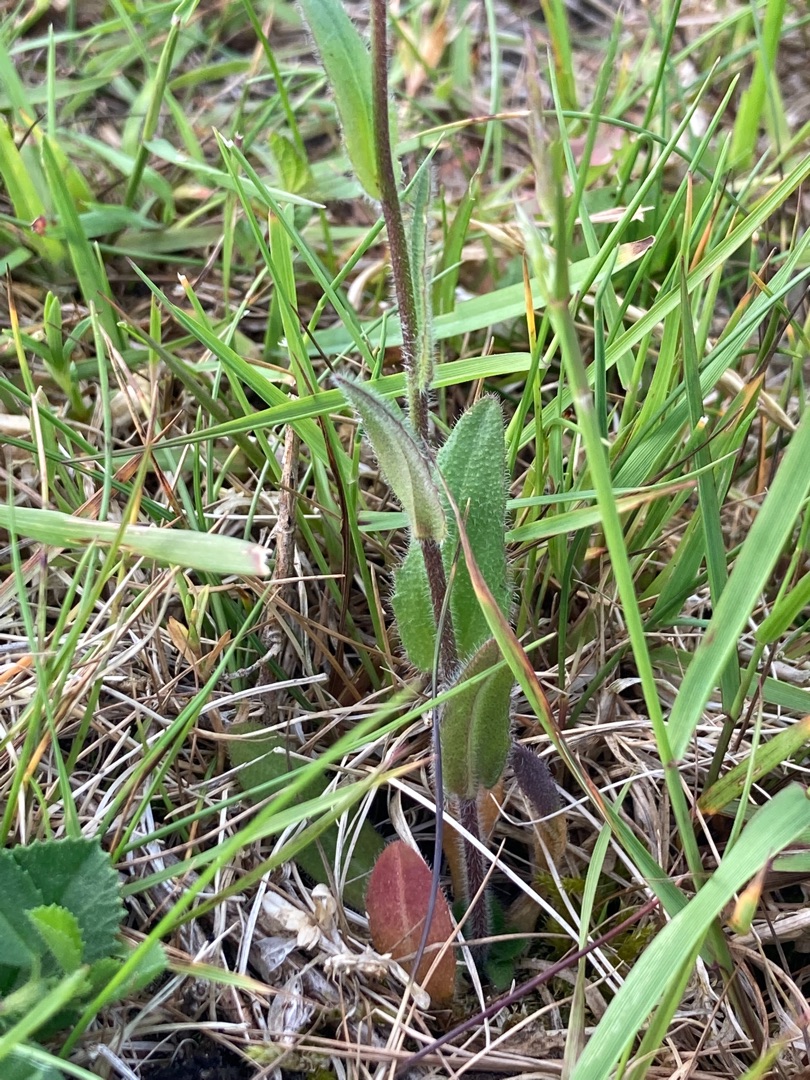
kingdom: Plantae
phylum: Tracheophyta
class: Magnoliopsida
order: Brassicales
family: Brassicaceae
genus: Arabis
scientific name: Arabis hirsuta
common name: Stivhåret kalkkarse
